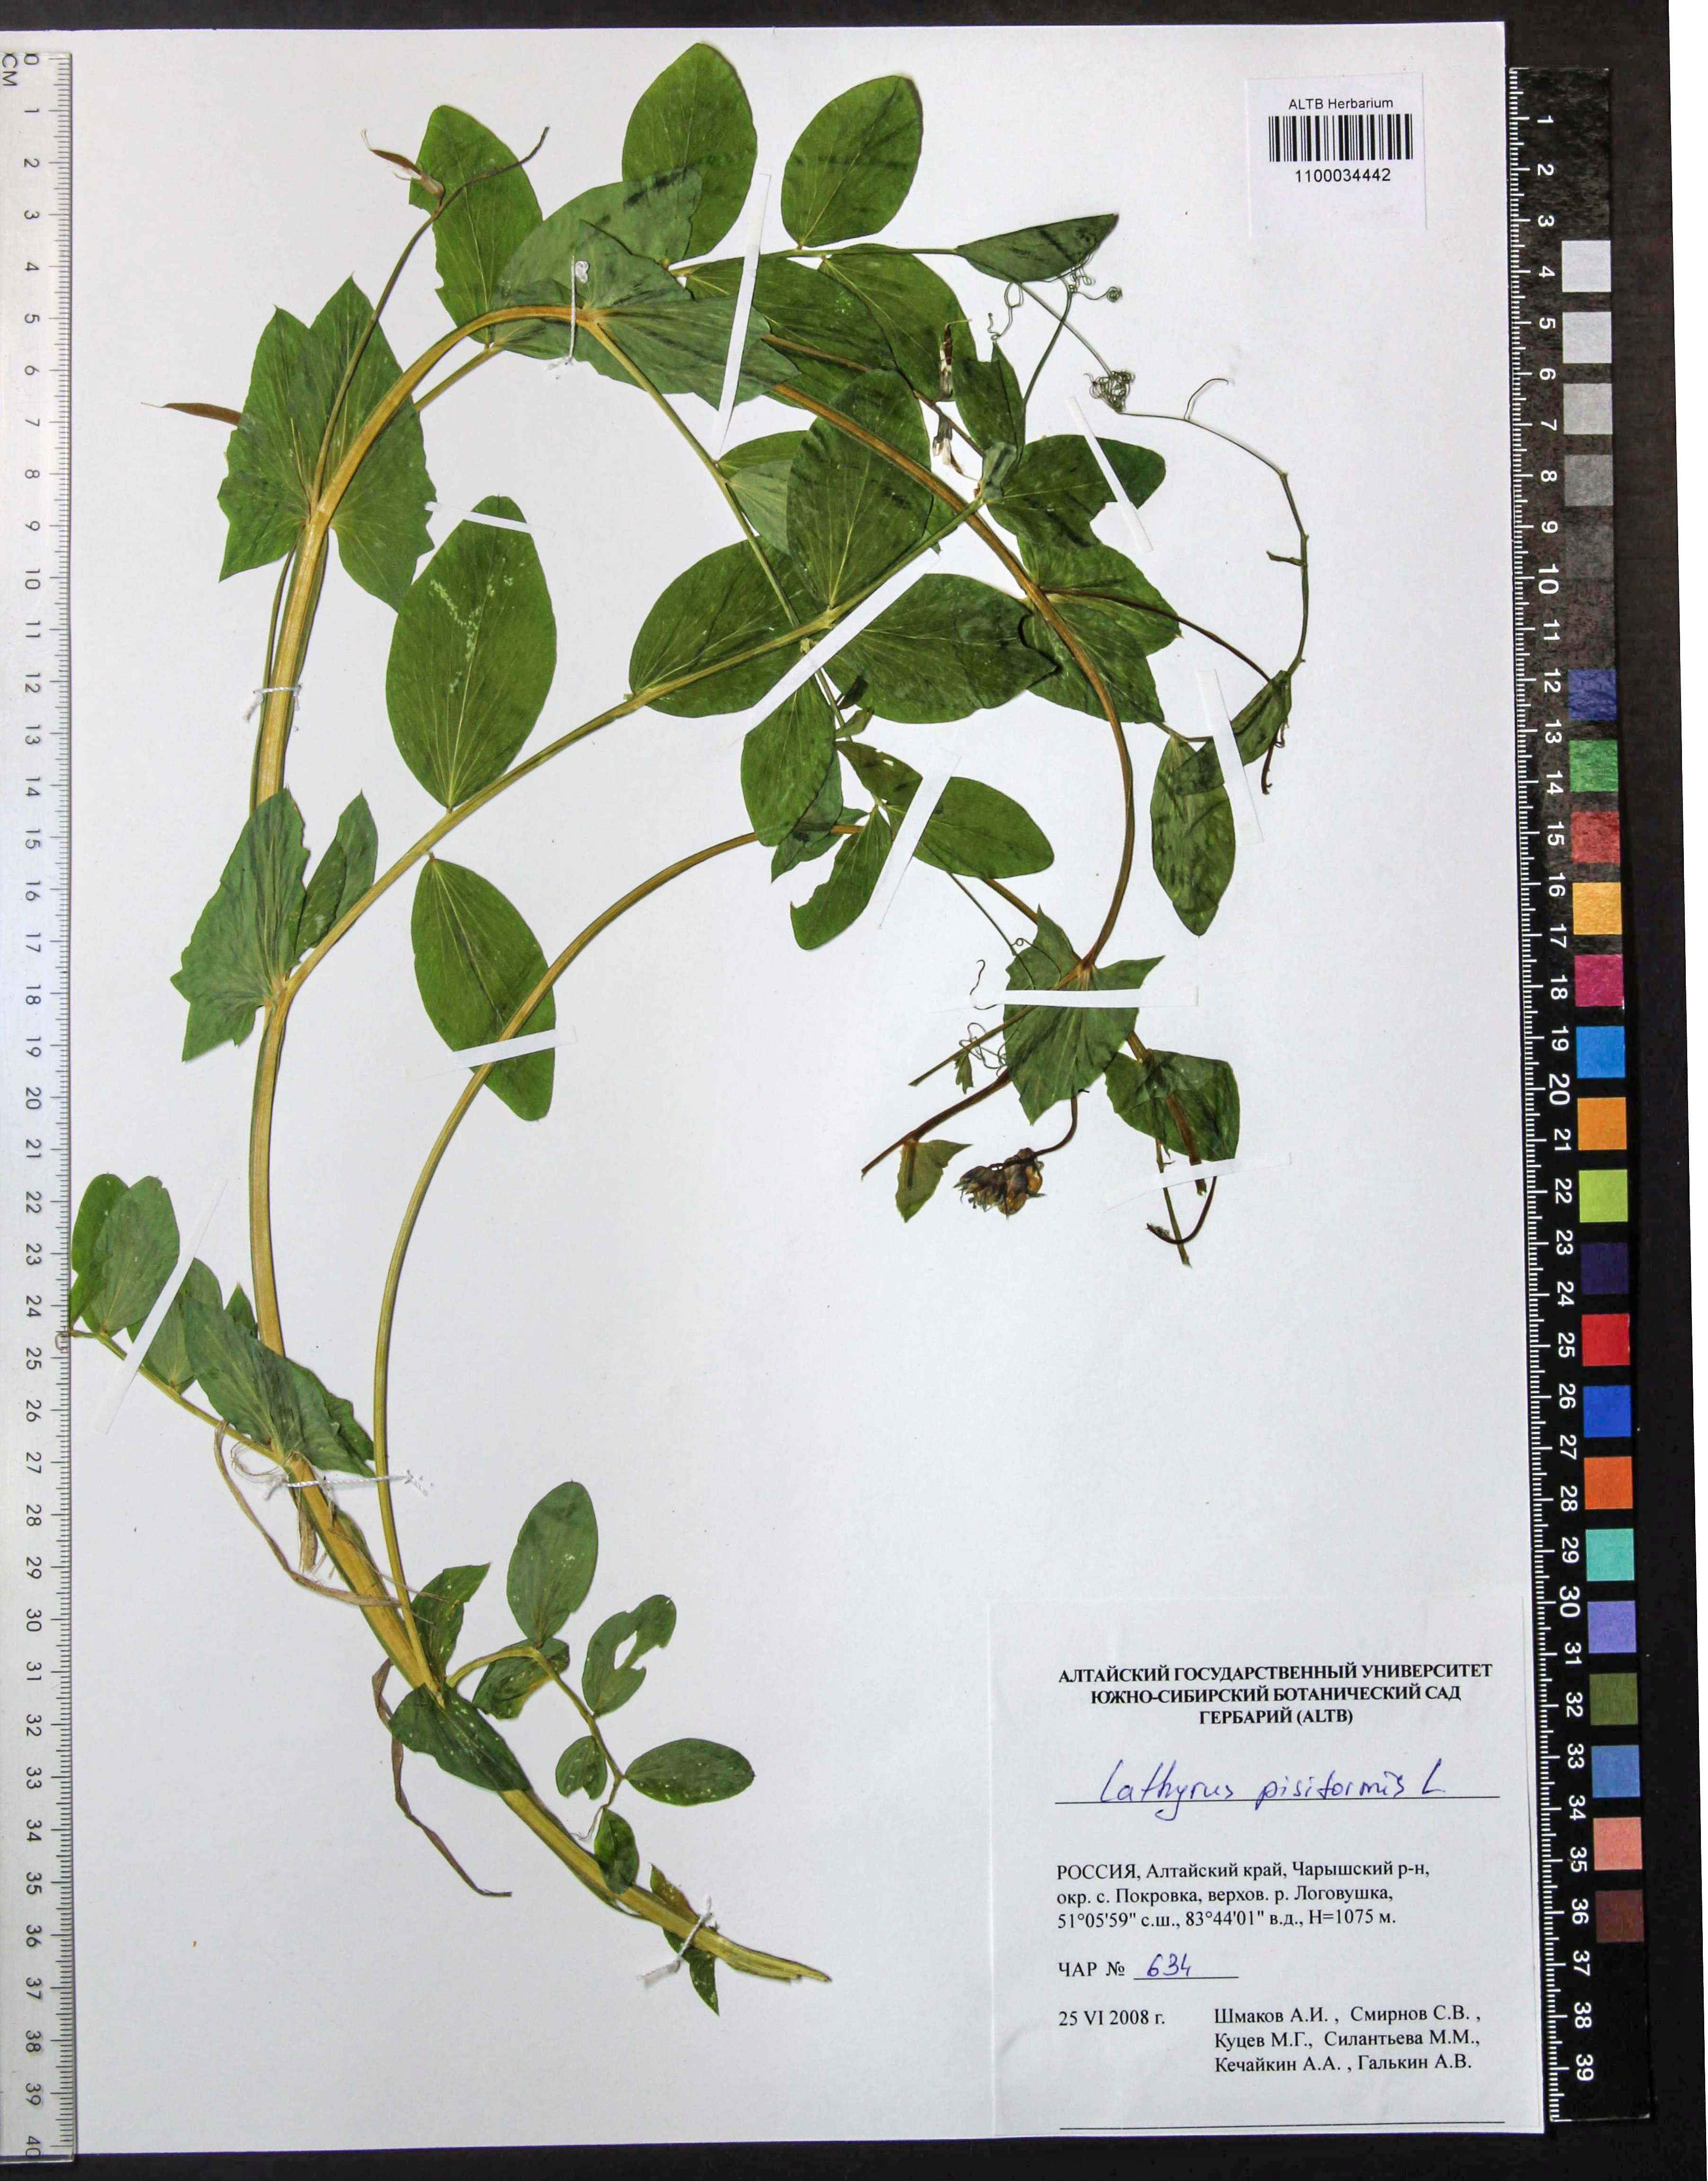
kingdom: Plantae
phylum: Tracheophyta
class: Magnoliopsida
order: Fabales
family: Fabaceae
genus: Lathyrus
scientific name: Lathyrus pisiformis
